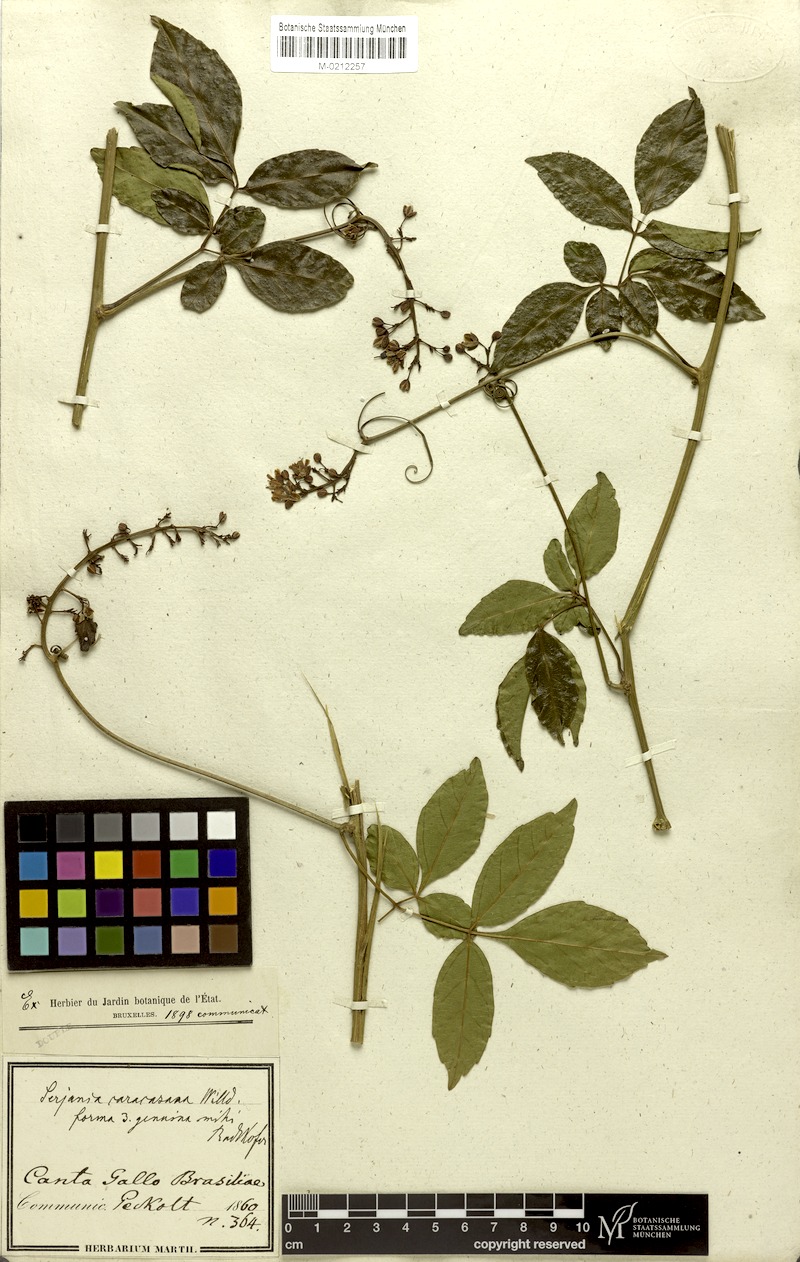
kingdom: Plantae
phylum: Tracheophyta
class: Magnoliopsida
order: Sapindales
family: Sapindaceae
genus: Serjania
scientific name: Serjania caracasana
